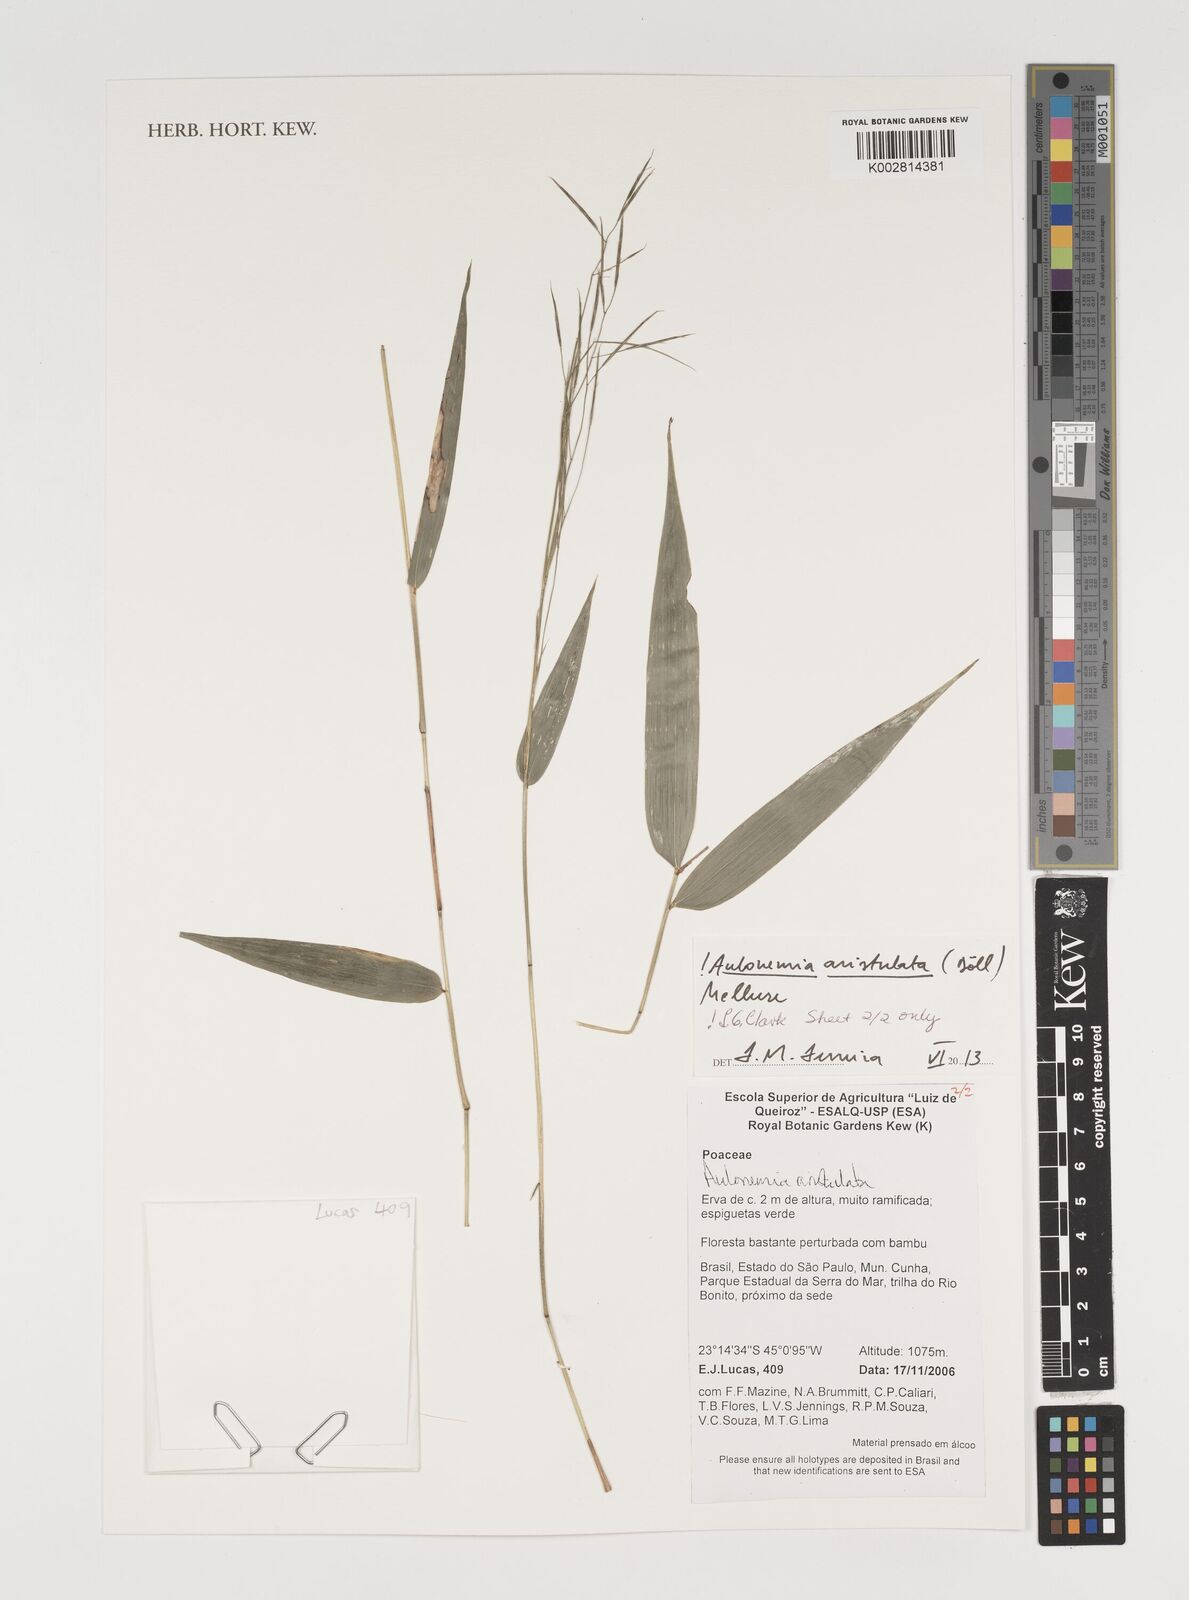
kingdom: Plantae
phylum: Tracheophyta
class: Liliopsida
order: Poales
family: Poaceae
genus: Aulonemia
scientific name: Aulonemia aristulata
